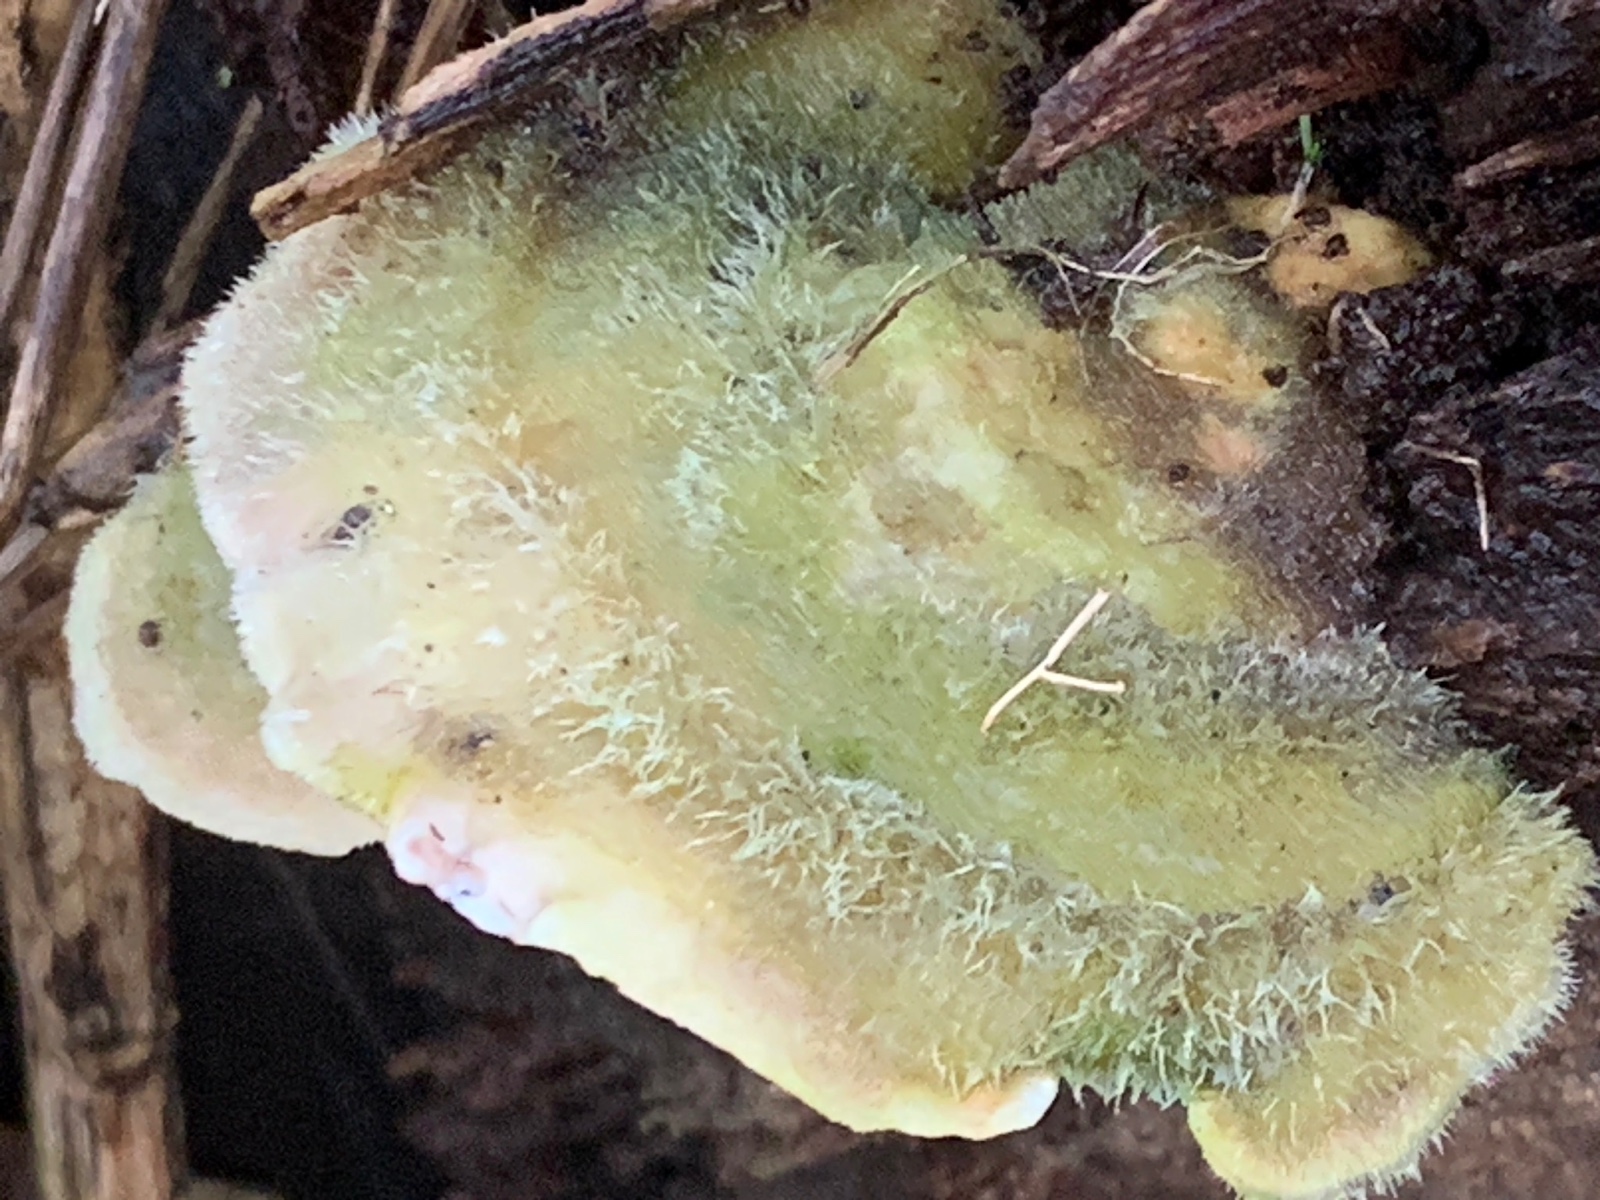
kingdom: Fungi
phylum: Basidiomycota
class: Agaricomycetes
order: Polyporales
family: Polyporaceae
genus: Trametes
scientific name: Trametes hirsuta
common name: håret læderporesvamp
